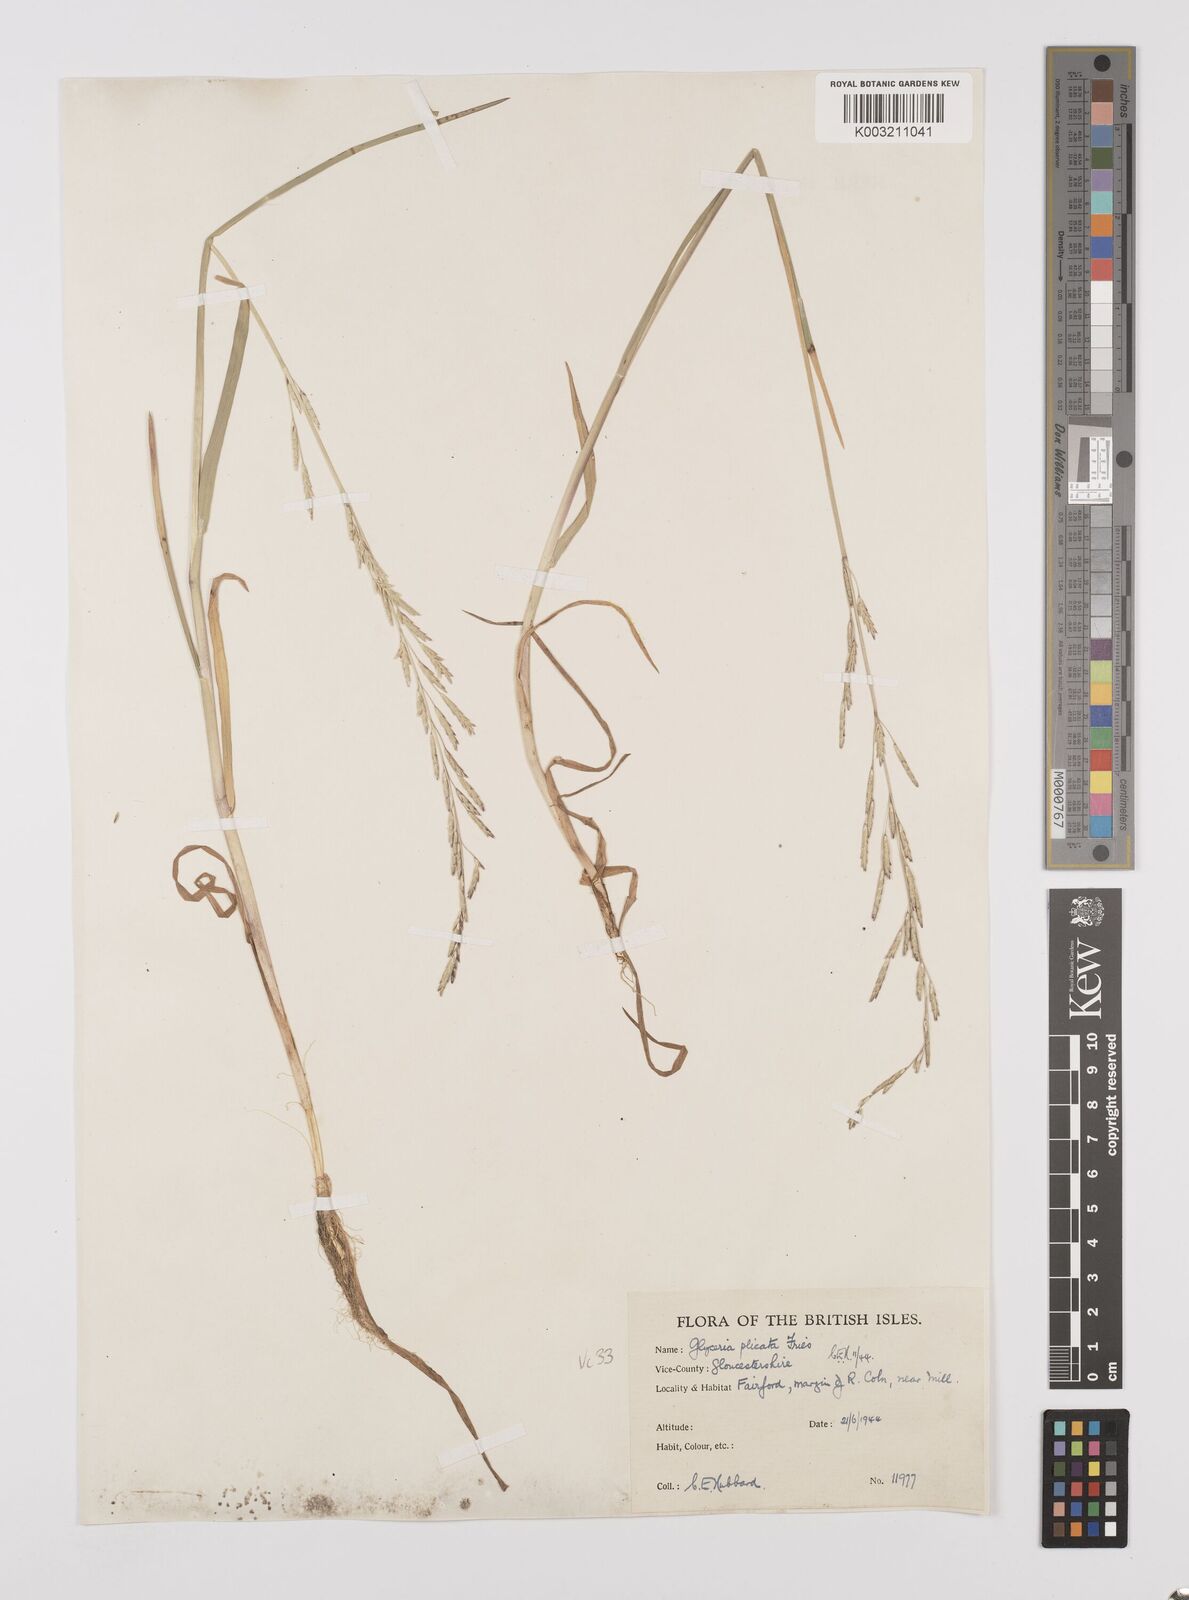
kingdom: Plantae
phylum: Tracheophyta
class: Liliopsida
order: Poales
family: Poaceae
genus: Glyceria
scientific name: Glyceria notata
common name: Plicate sweet-grass
